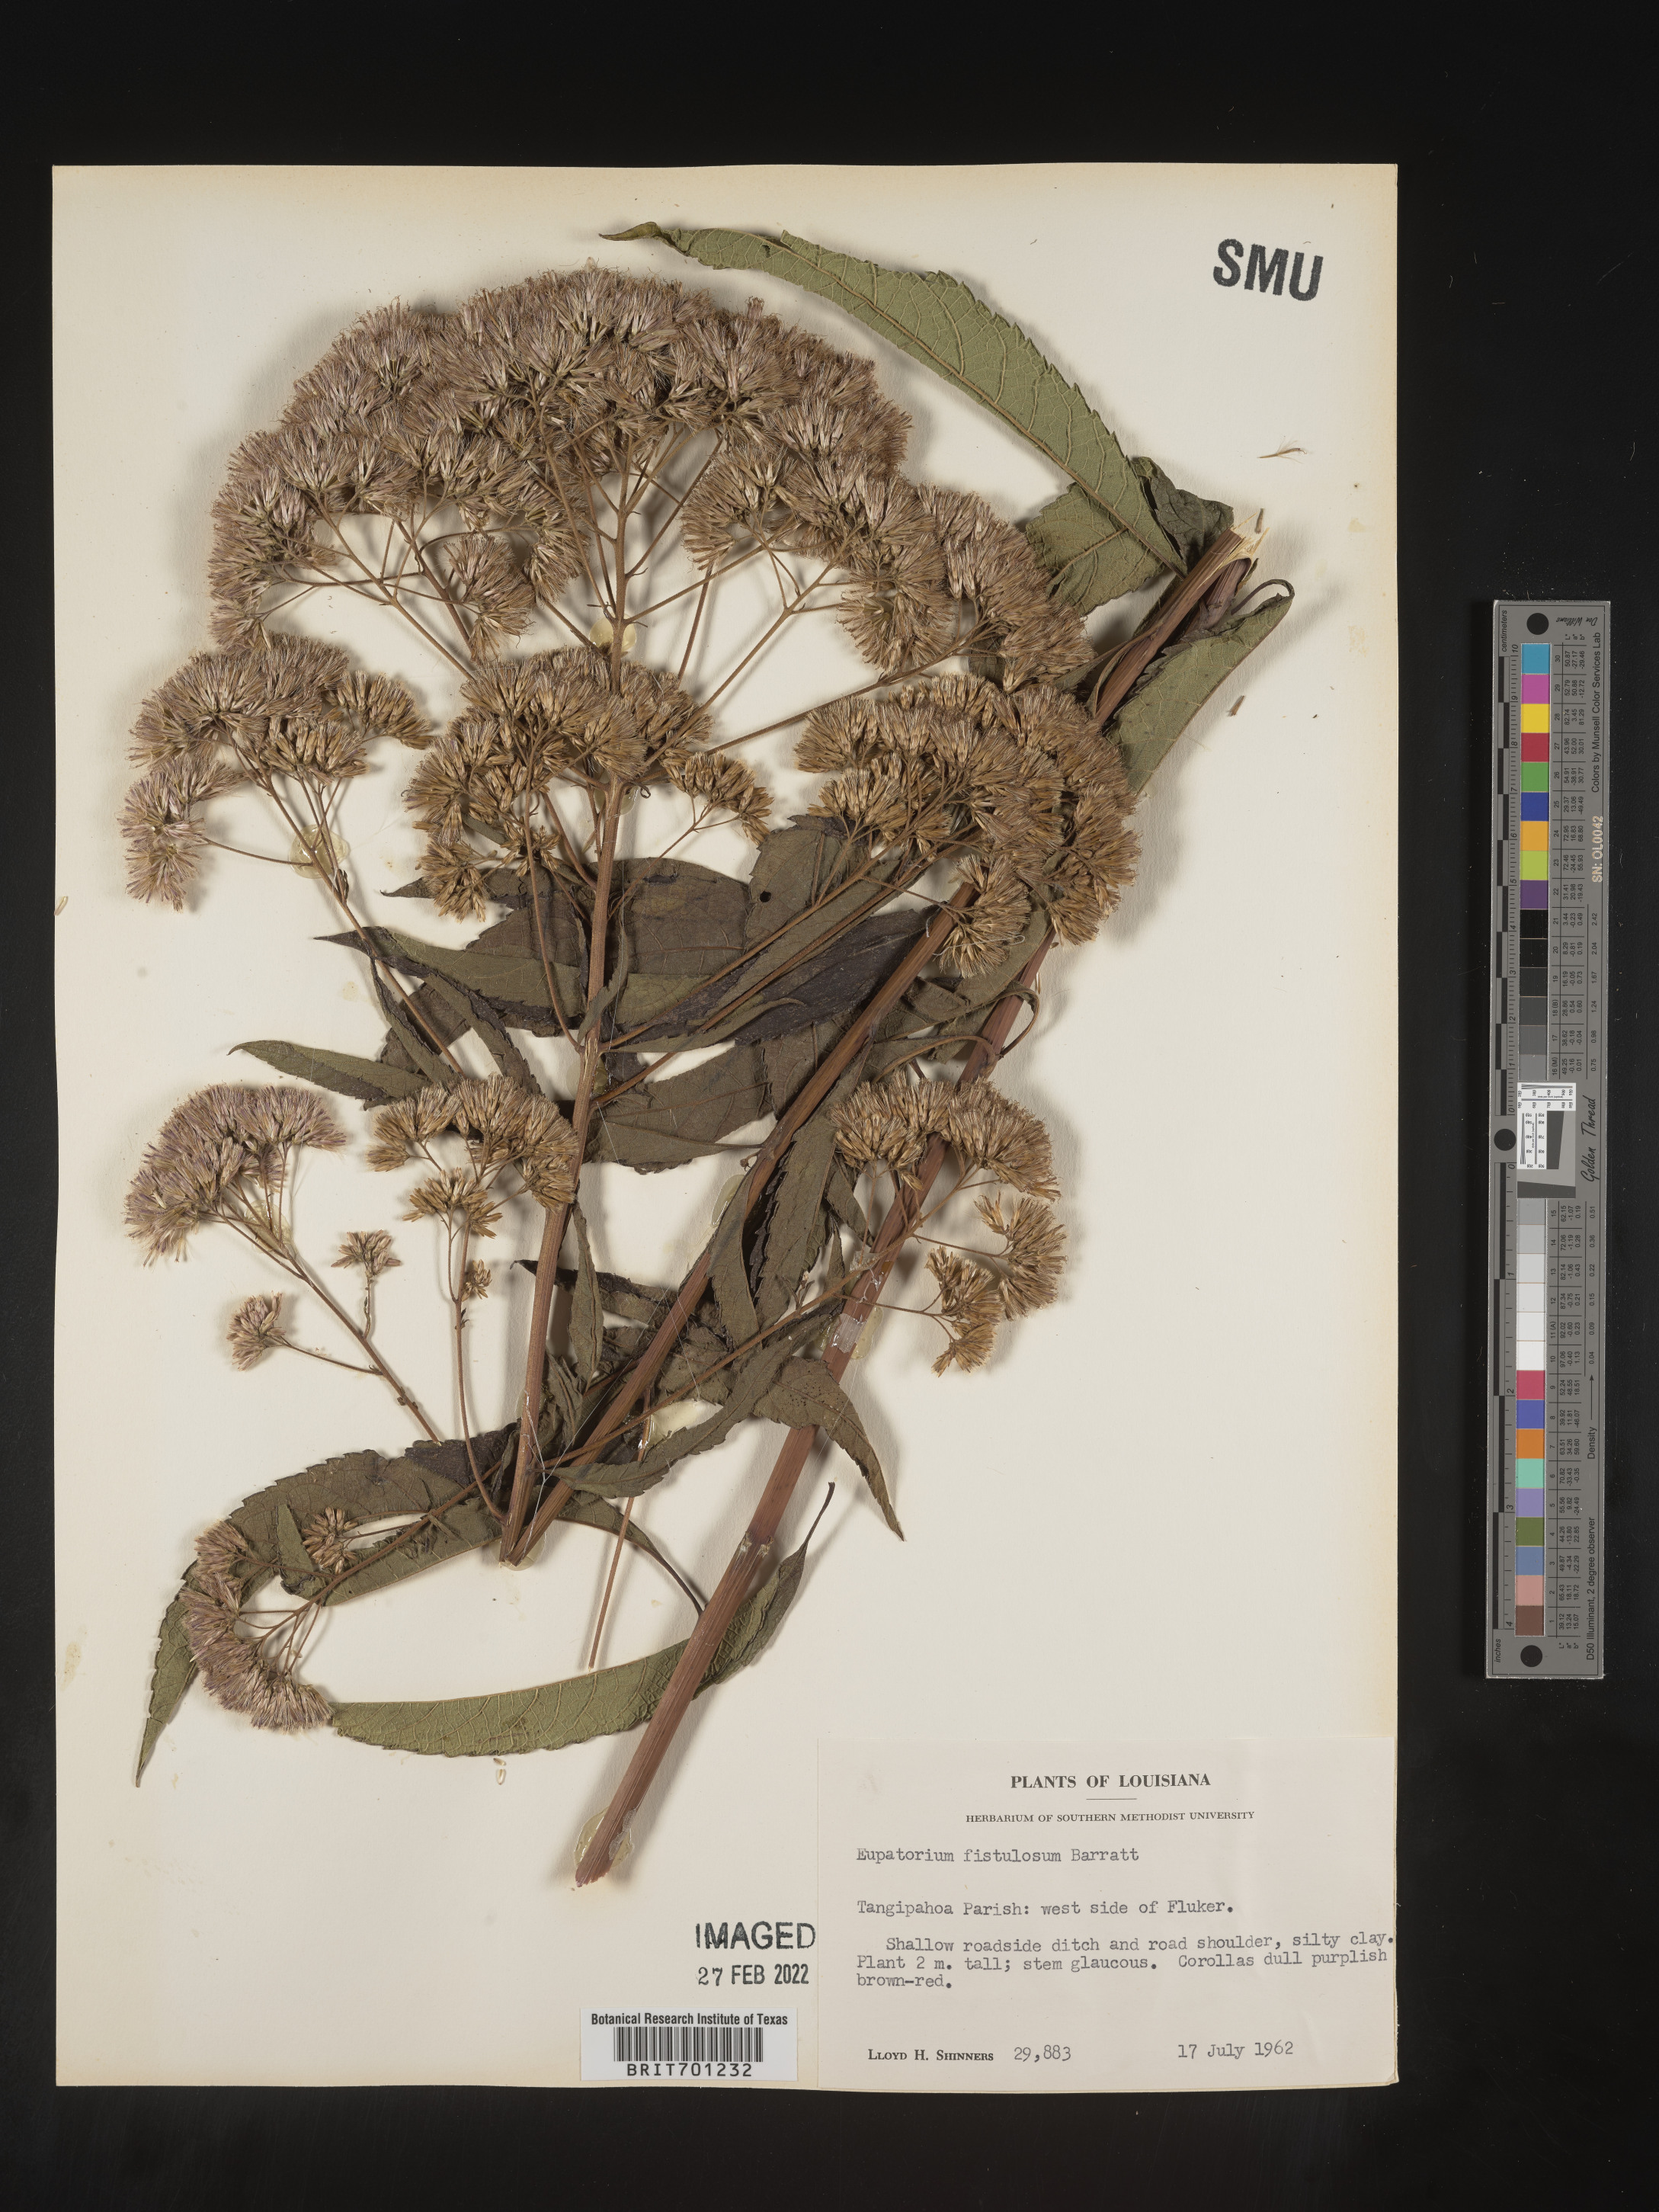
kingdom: Plantae
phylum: Tracheophyta
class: Magnoliopsida
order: Asterales
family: Asteraceae
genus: Eutrochium
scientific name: Eutrochium fistulosum
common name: Trumpetweed
